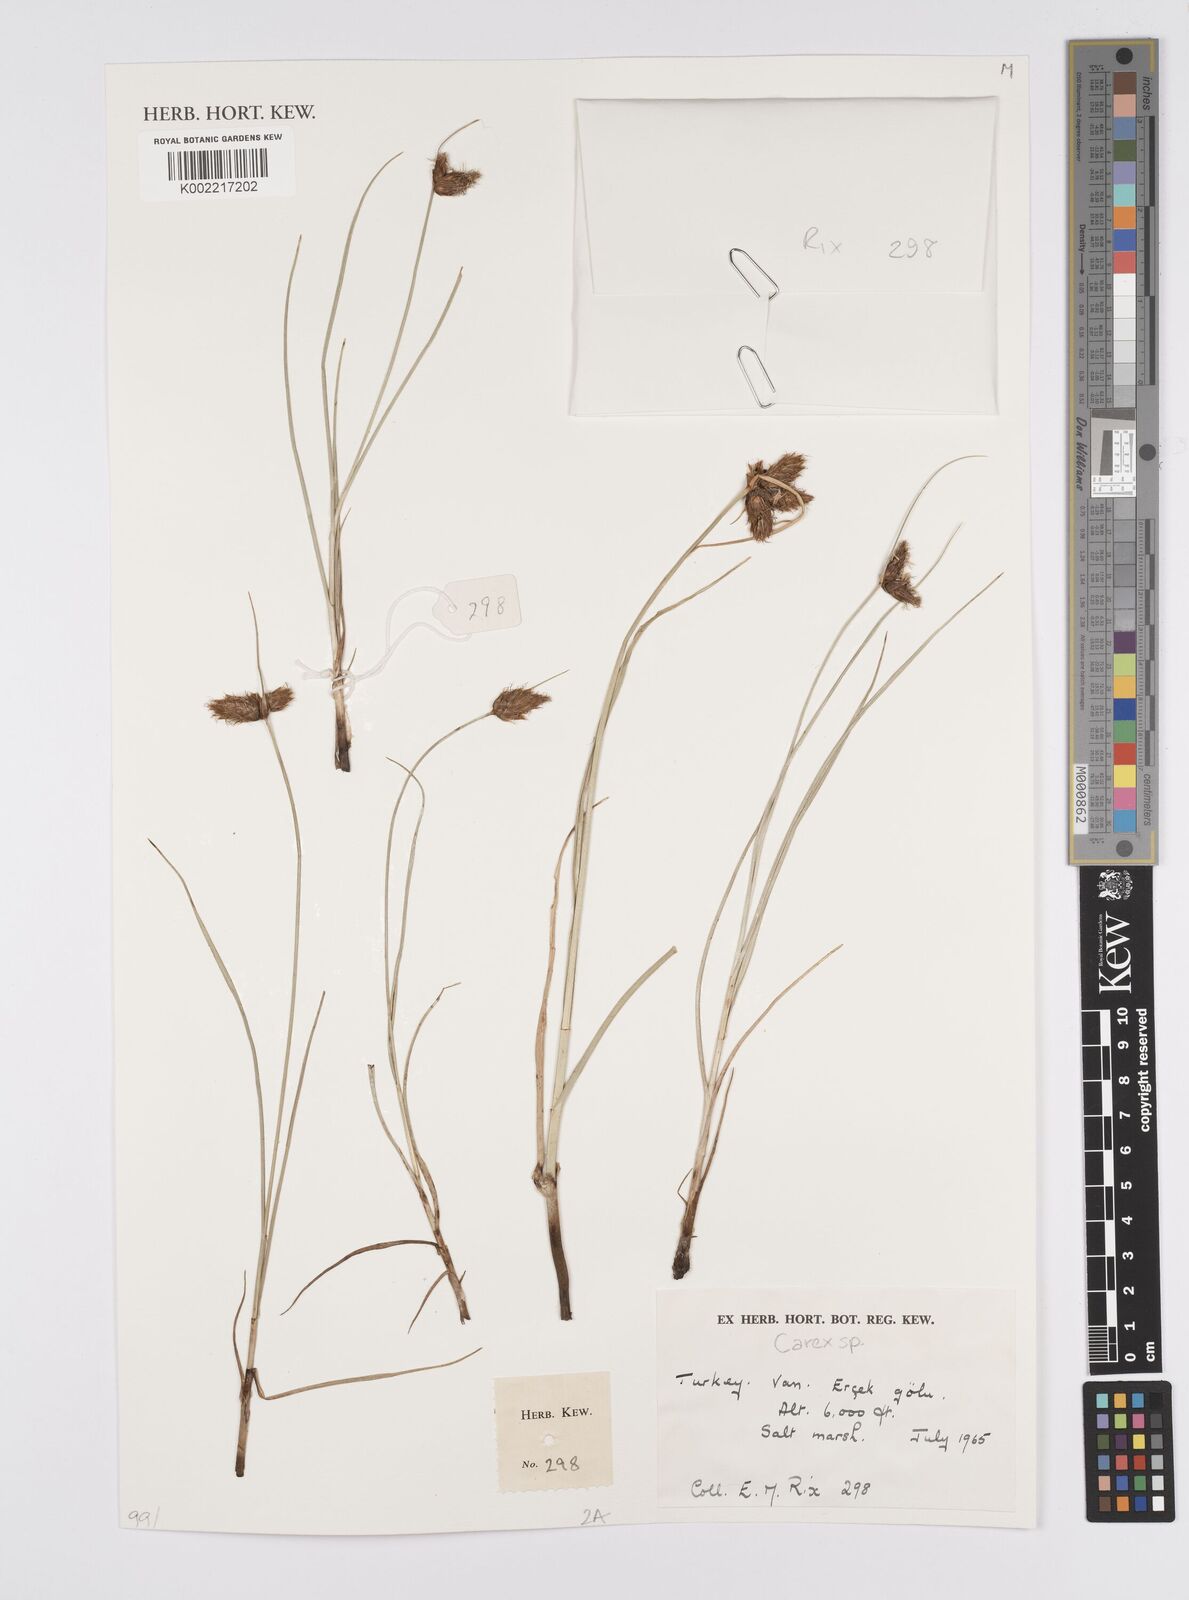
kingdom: Plantae
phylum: Tracheophyta
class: Liliopsida
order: Poales
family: Cyperaceae
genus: Carex
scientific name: Carex
